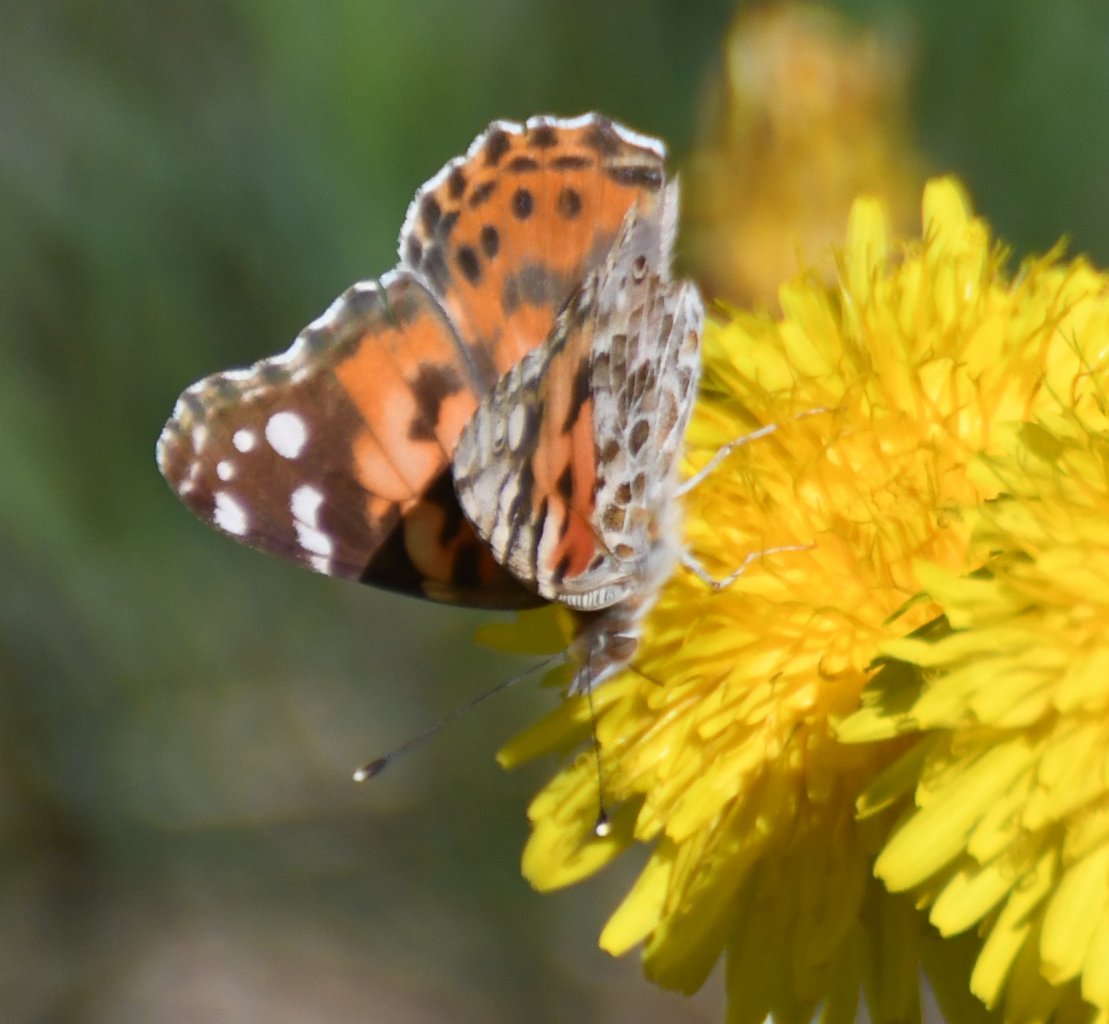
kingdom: Animalia
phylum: Arthropoda
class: Insecta
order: Lepidoptera
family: Nymphalidae
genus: Vanessa
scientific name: Vanessa cardui
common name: Painted Lady
